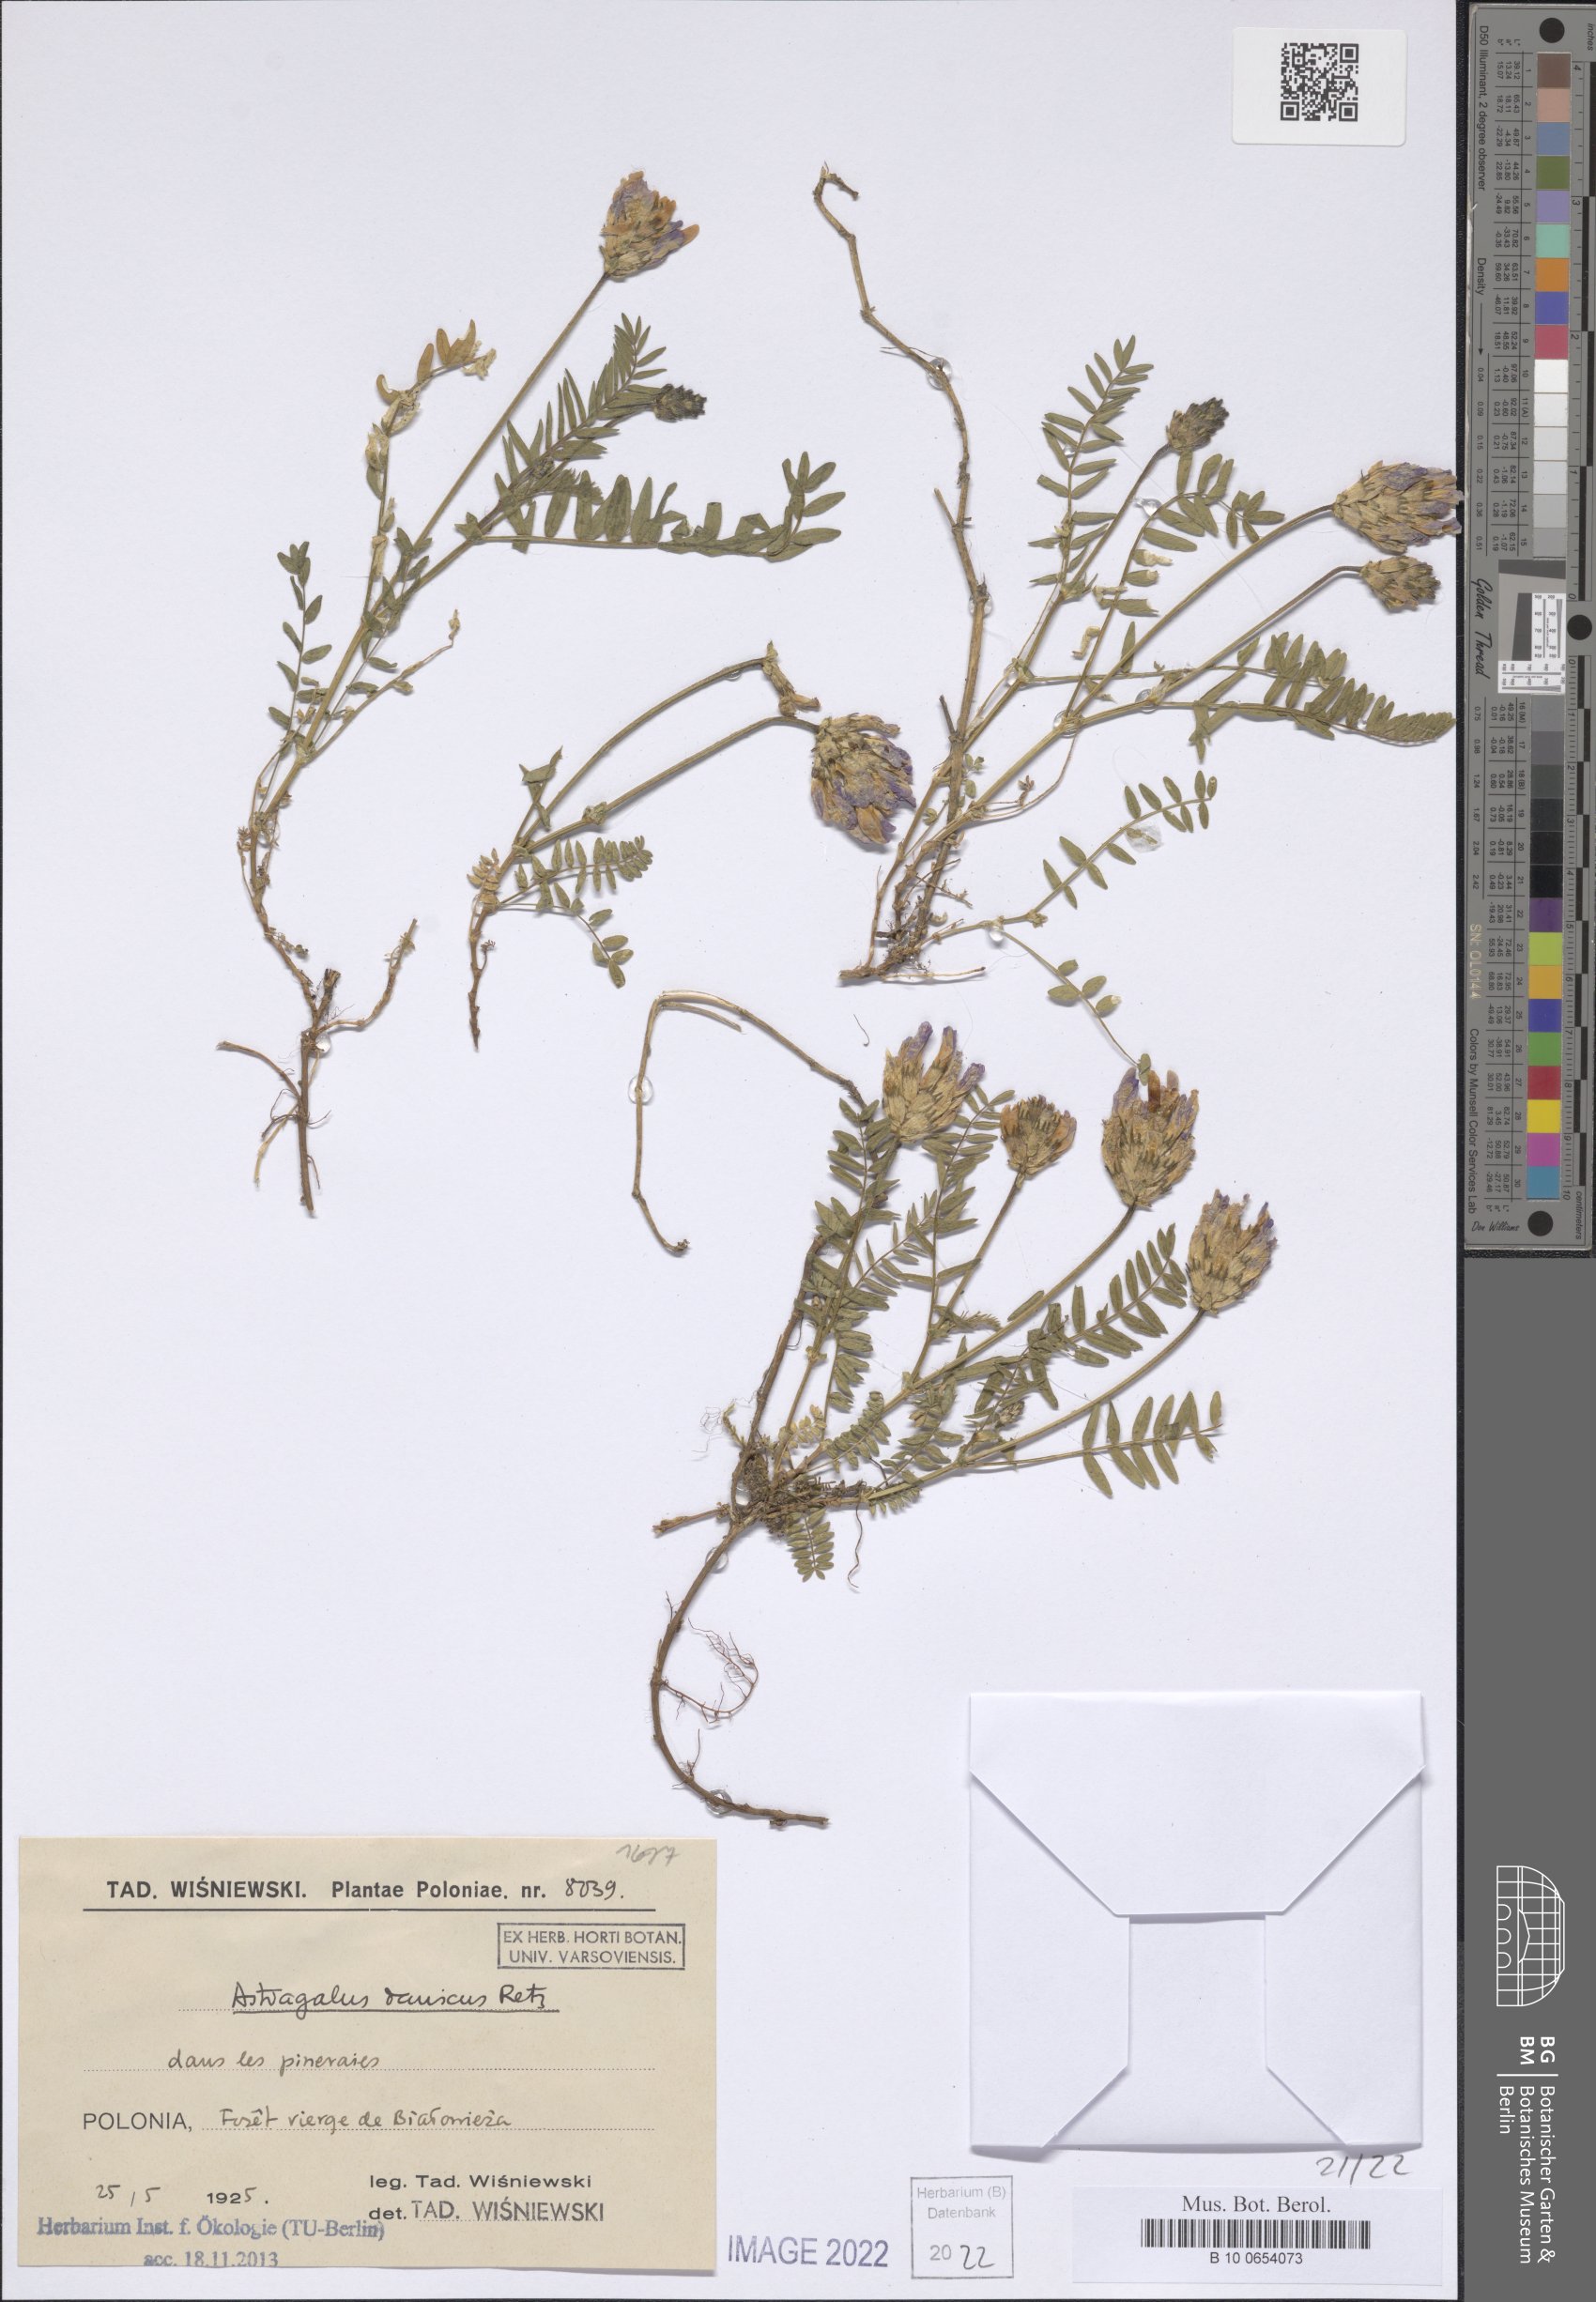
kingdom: Plantae
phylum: Tracheophyta
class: Magnoliopsida
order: Fabales
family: Fabaceae
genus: Astragalus
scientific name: Astragalus danicus
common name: Purple milk-vetch
